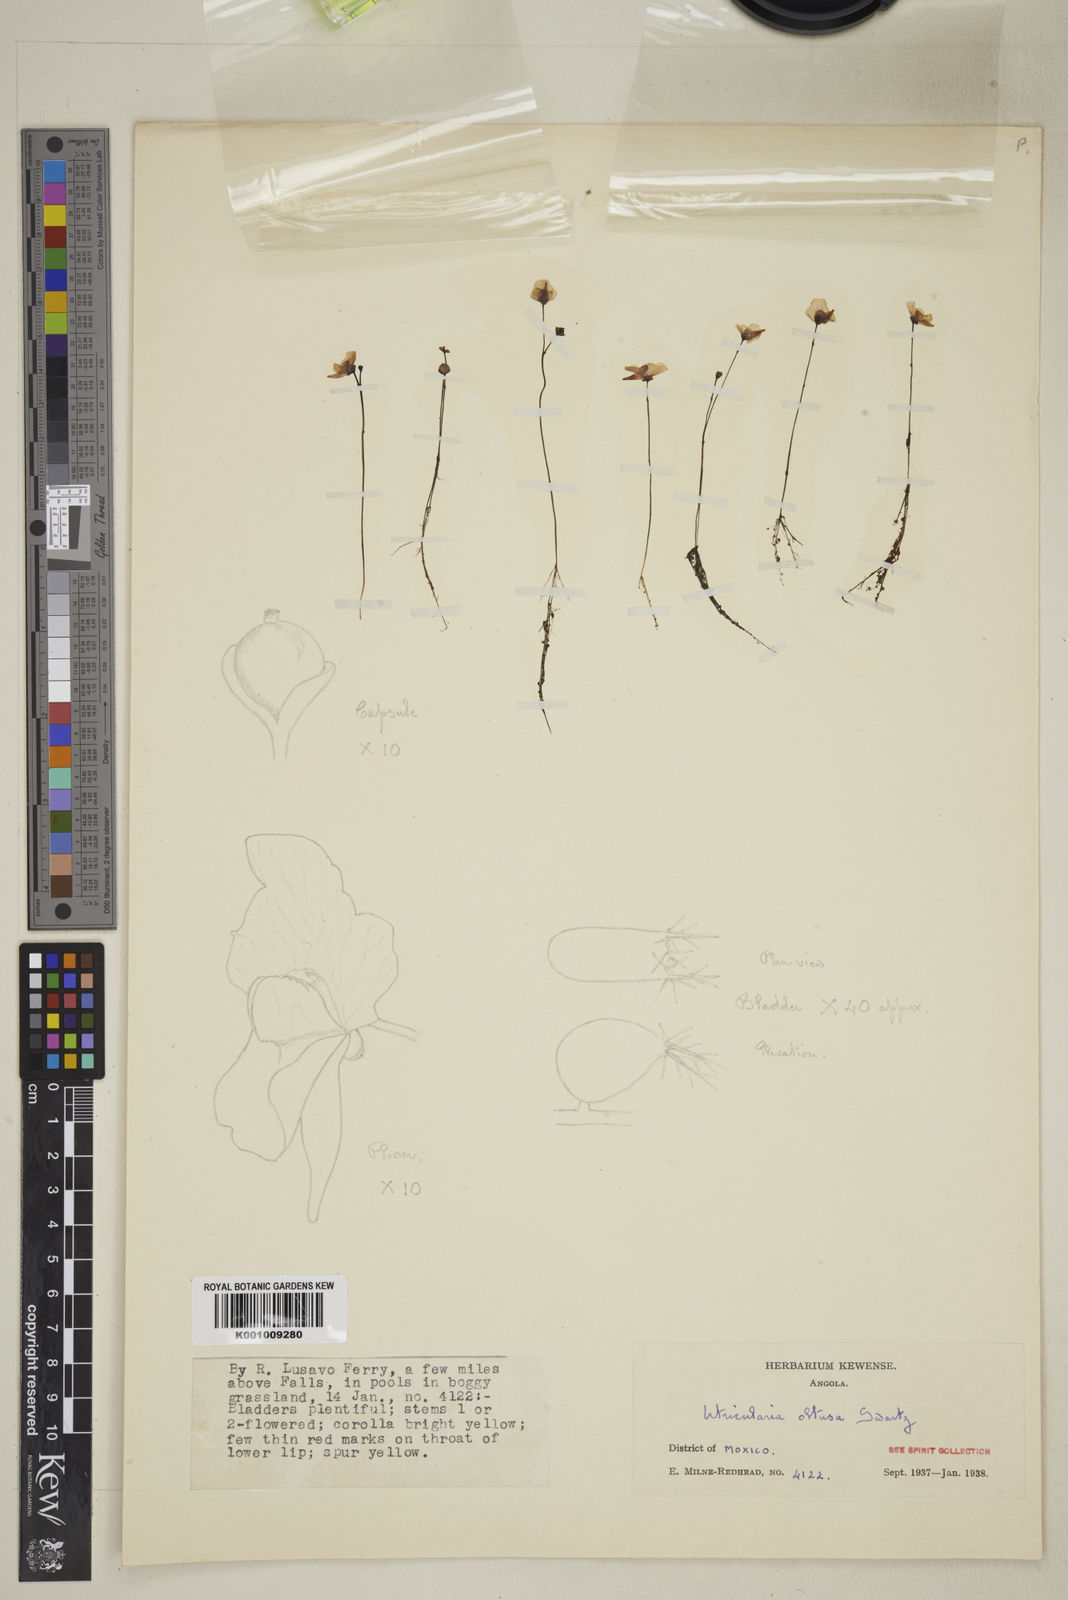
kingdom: Plantae
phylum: Tracheophyta
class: Magnoliopsida
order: Lamiales
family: Lentibulariaceae
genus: Utricularia
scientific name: Utricularia gibba
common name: Humped bladderwort
